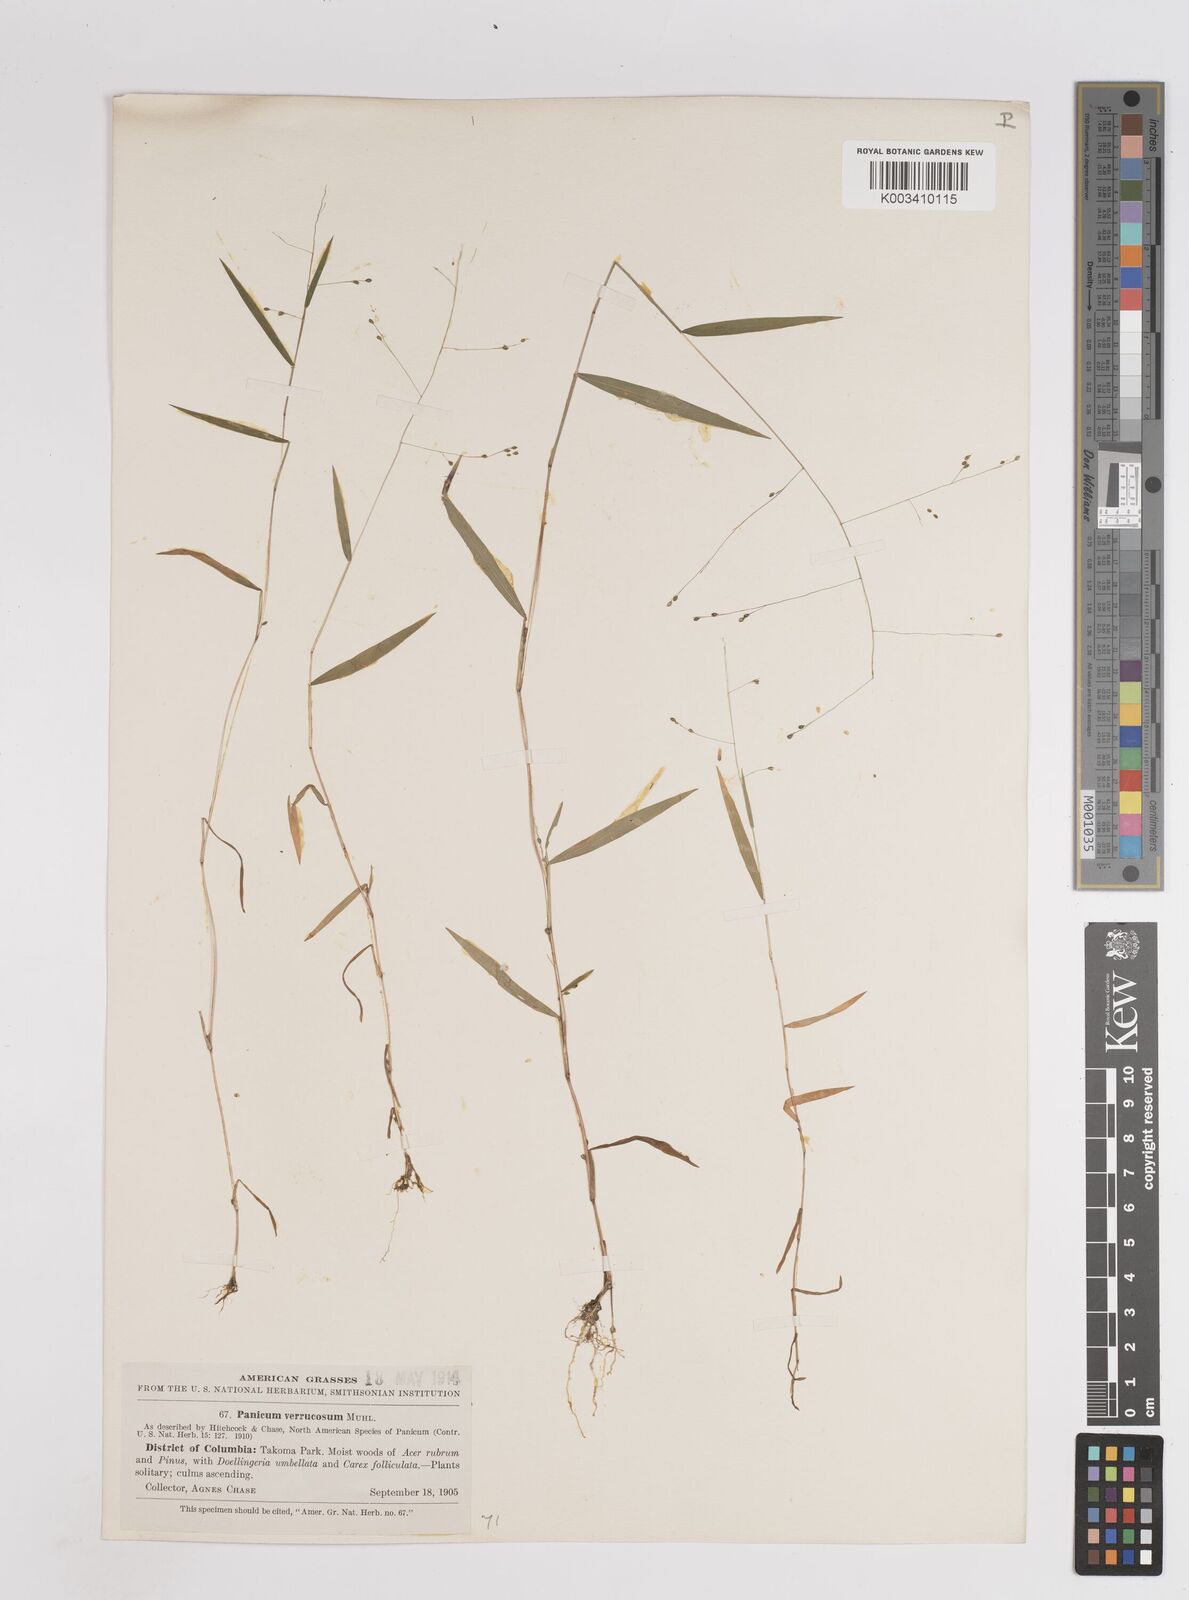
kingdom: Plantae
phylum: Tracheophyta
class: Liliopsida
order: Poales
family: Poaceae
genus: Kellochloa
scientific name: Kellochloa verrucosa
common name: Warty panic grass
